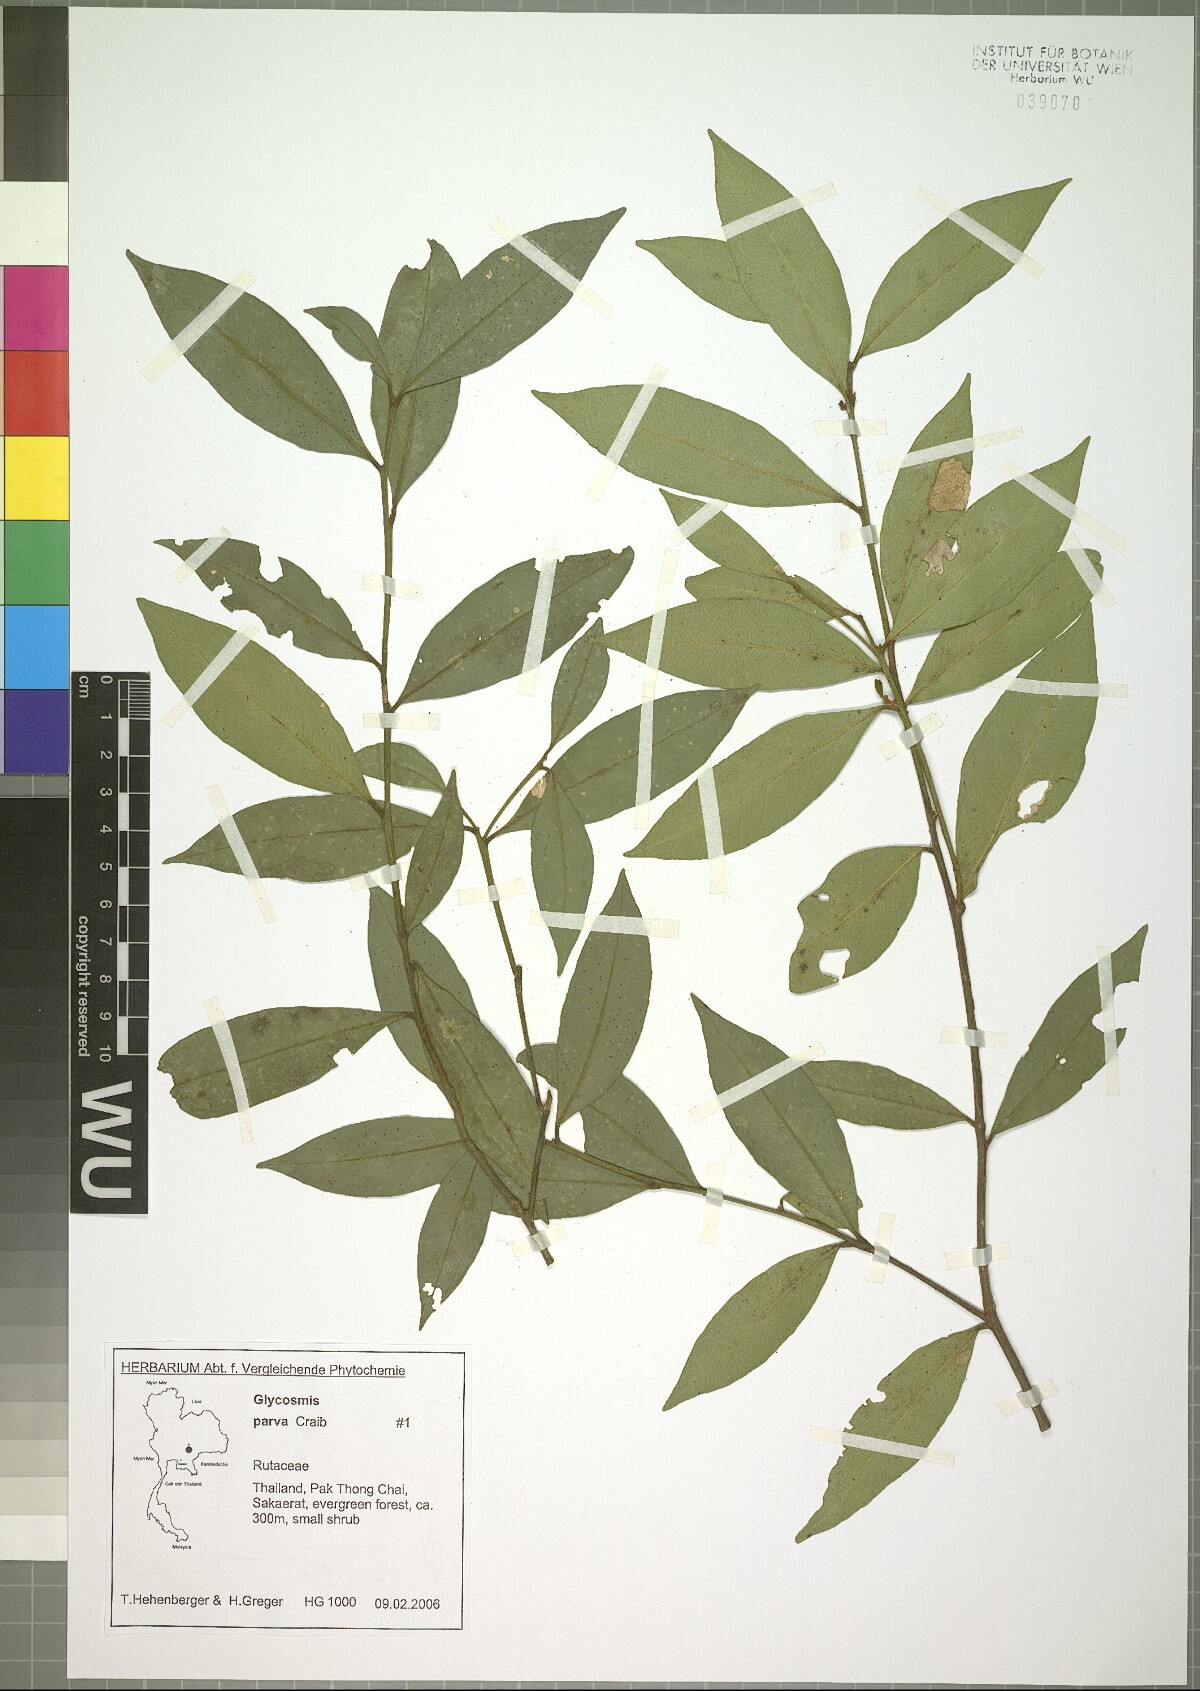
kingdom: Plantae
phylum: Tracheophyta
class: Magnoliopsida
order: Sapindales
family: Rutaceae
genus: Glycosmis
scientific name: Glycosmis parva
